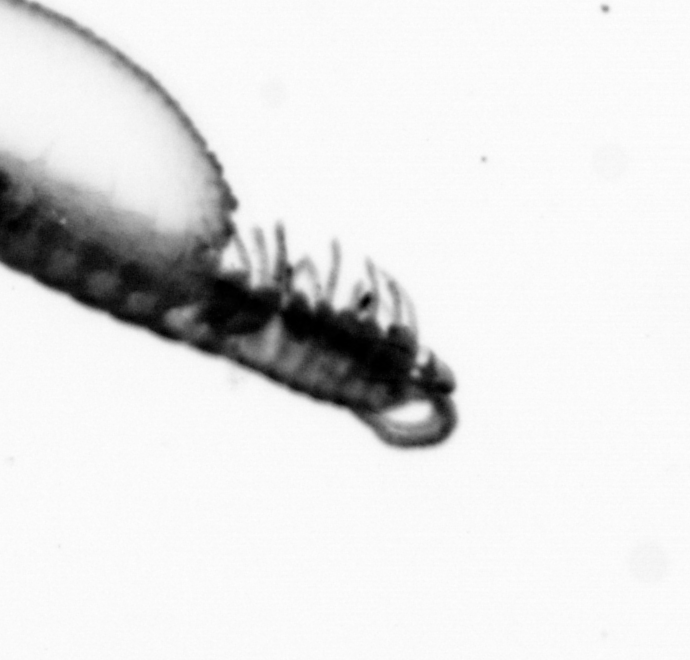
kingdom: Animalia
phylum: Annelida
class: Polychaeta
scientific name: Polychaeta
